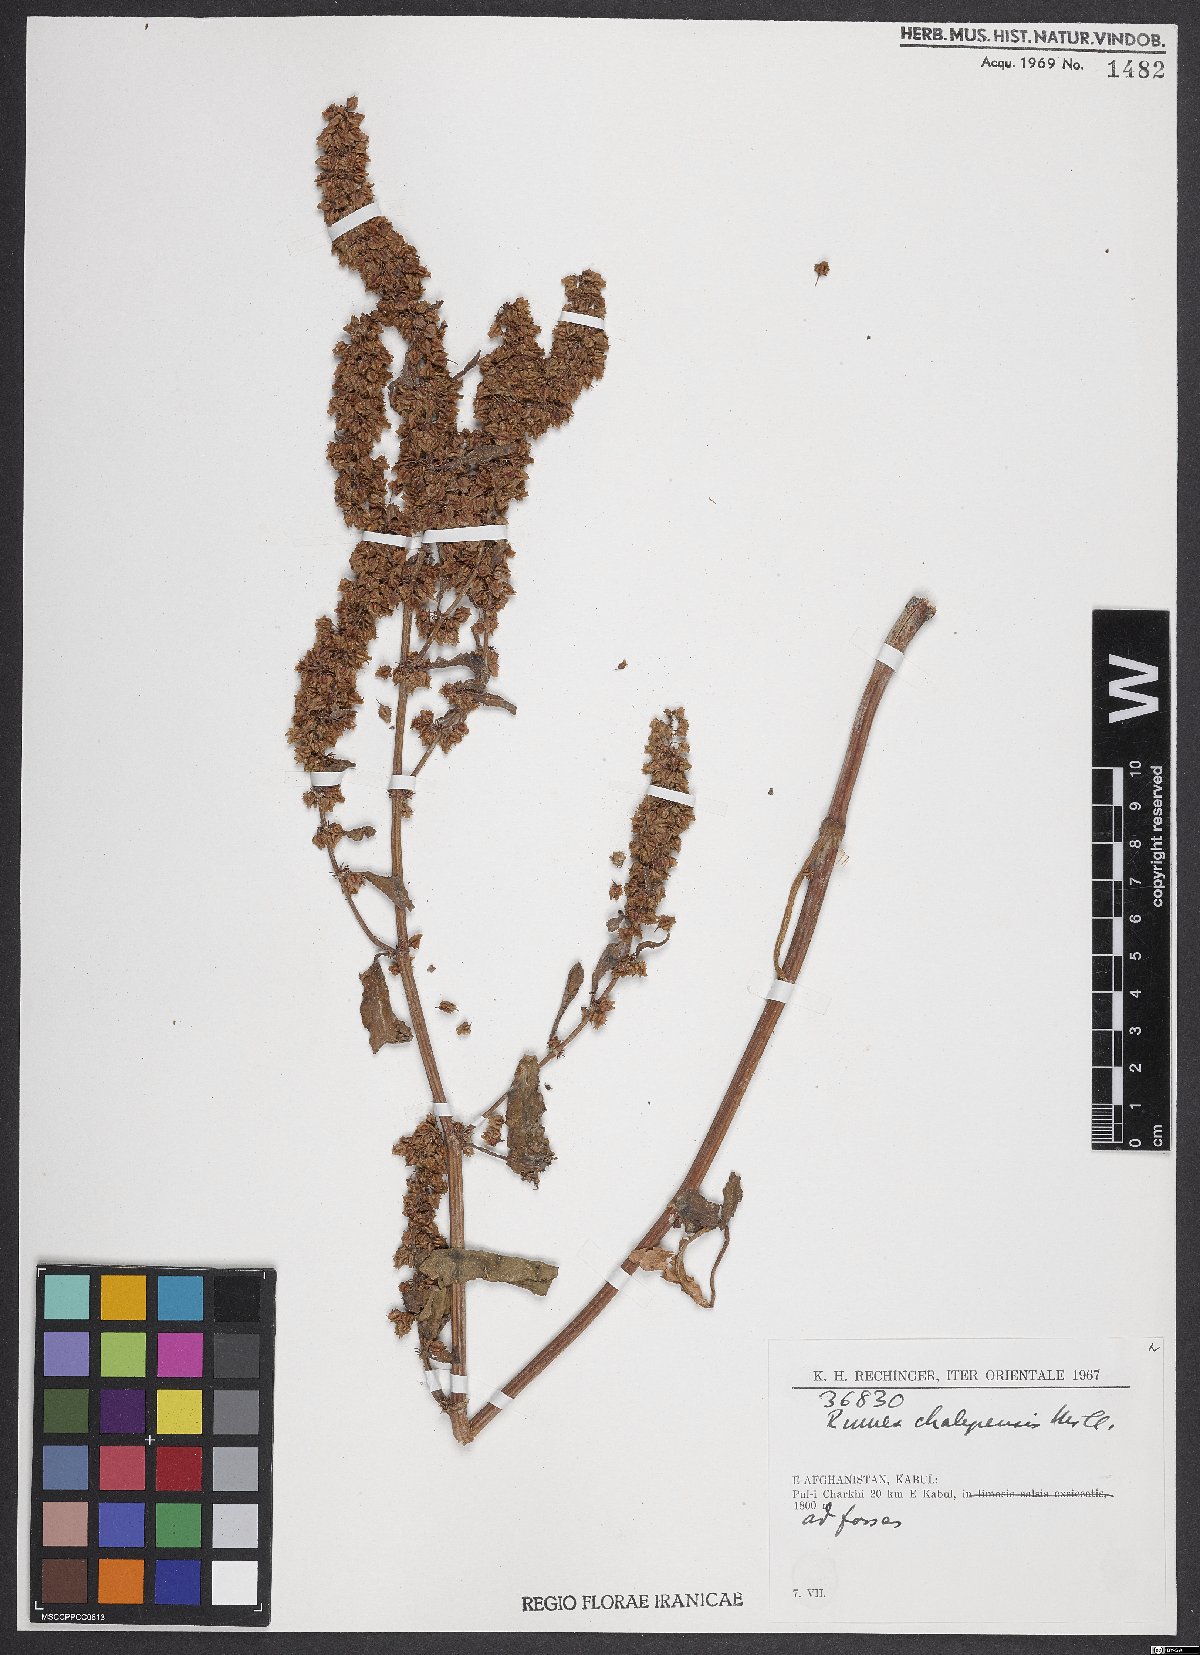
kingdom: Plantae
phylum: Tracheophyta
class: Magnoliopsida
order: Caryophyllales
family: Polygonaceae
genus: Rumex
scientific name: Rumex chalepensis
